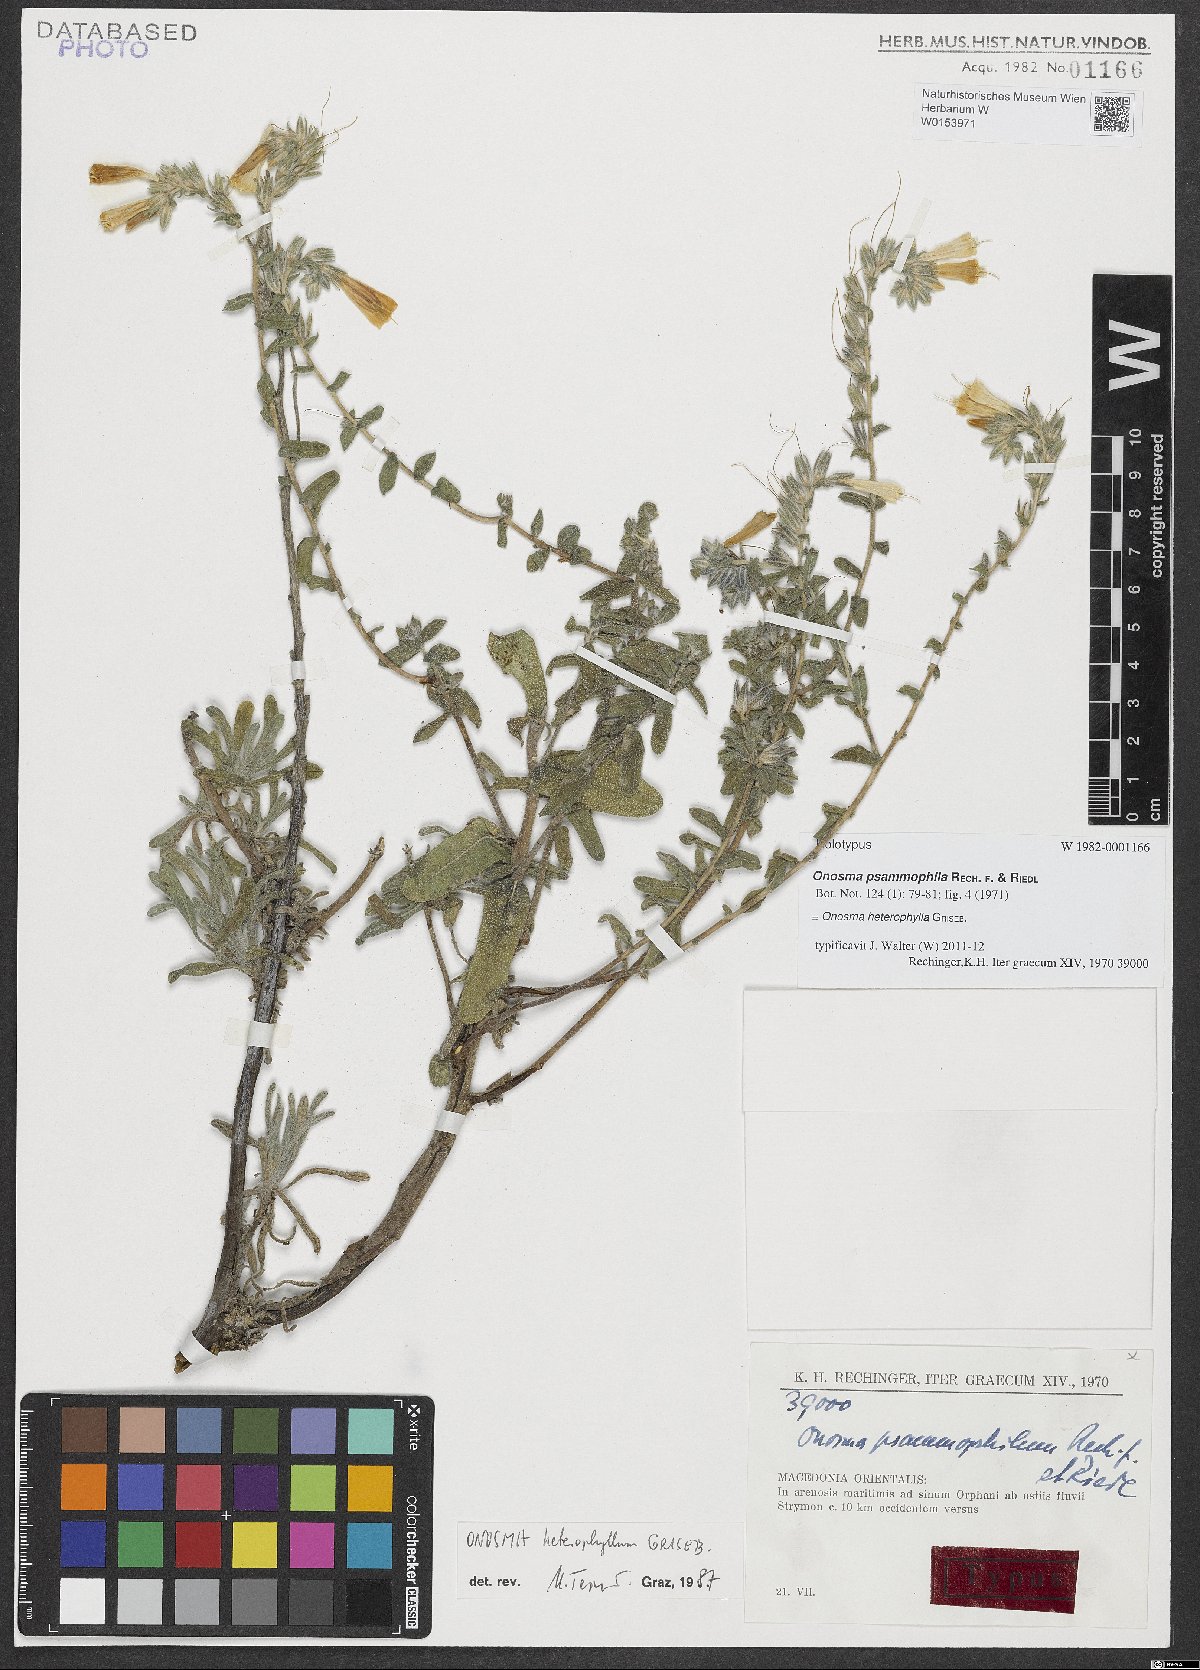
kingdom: Plantae
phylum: Tracheophyta
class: Magnoliopsida
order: Boraginales
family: Boraginaceae
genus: Onosma
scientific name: Onosma heterophylla
